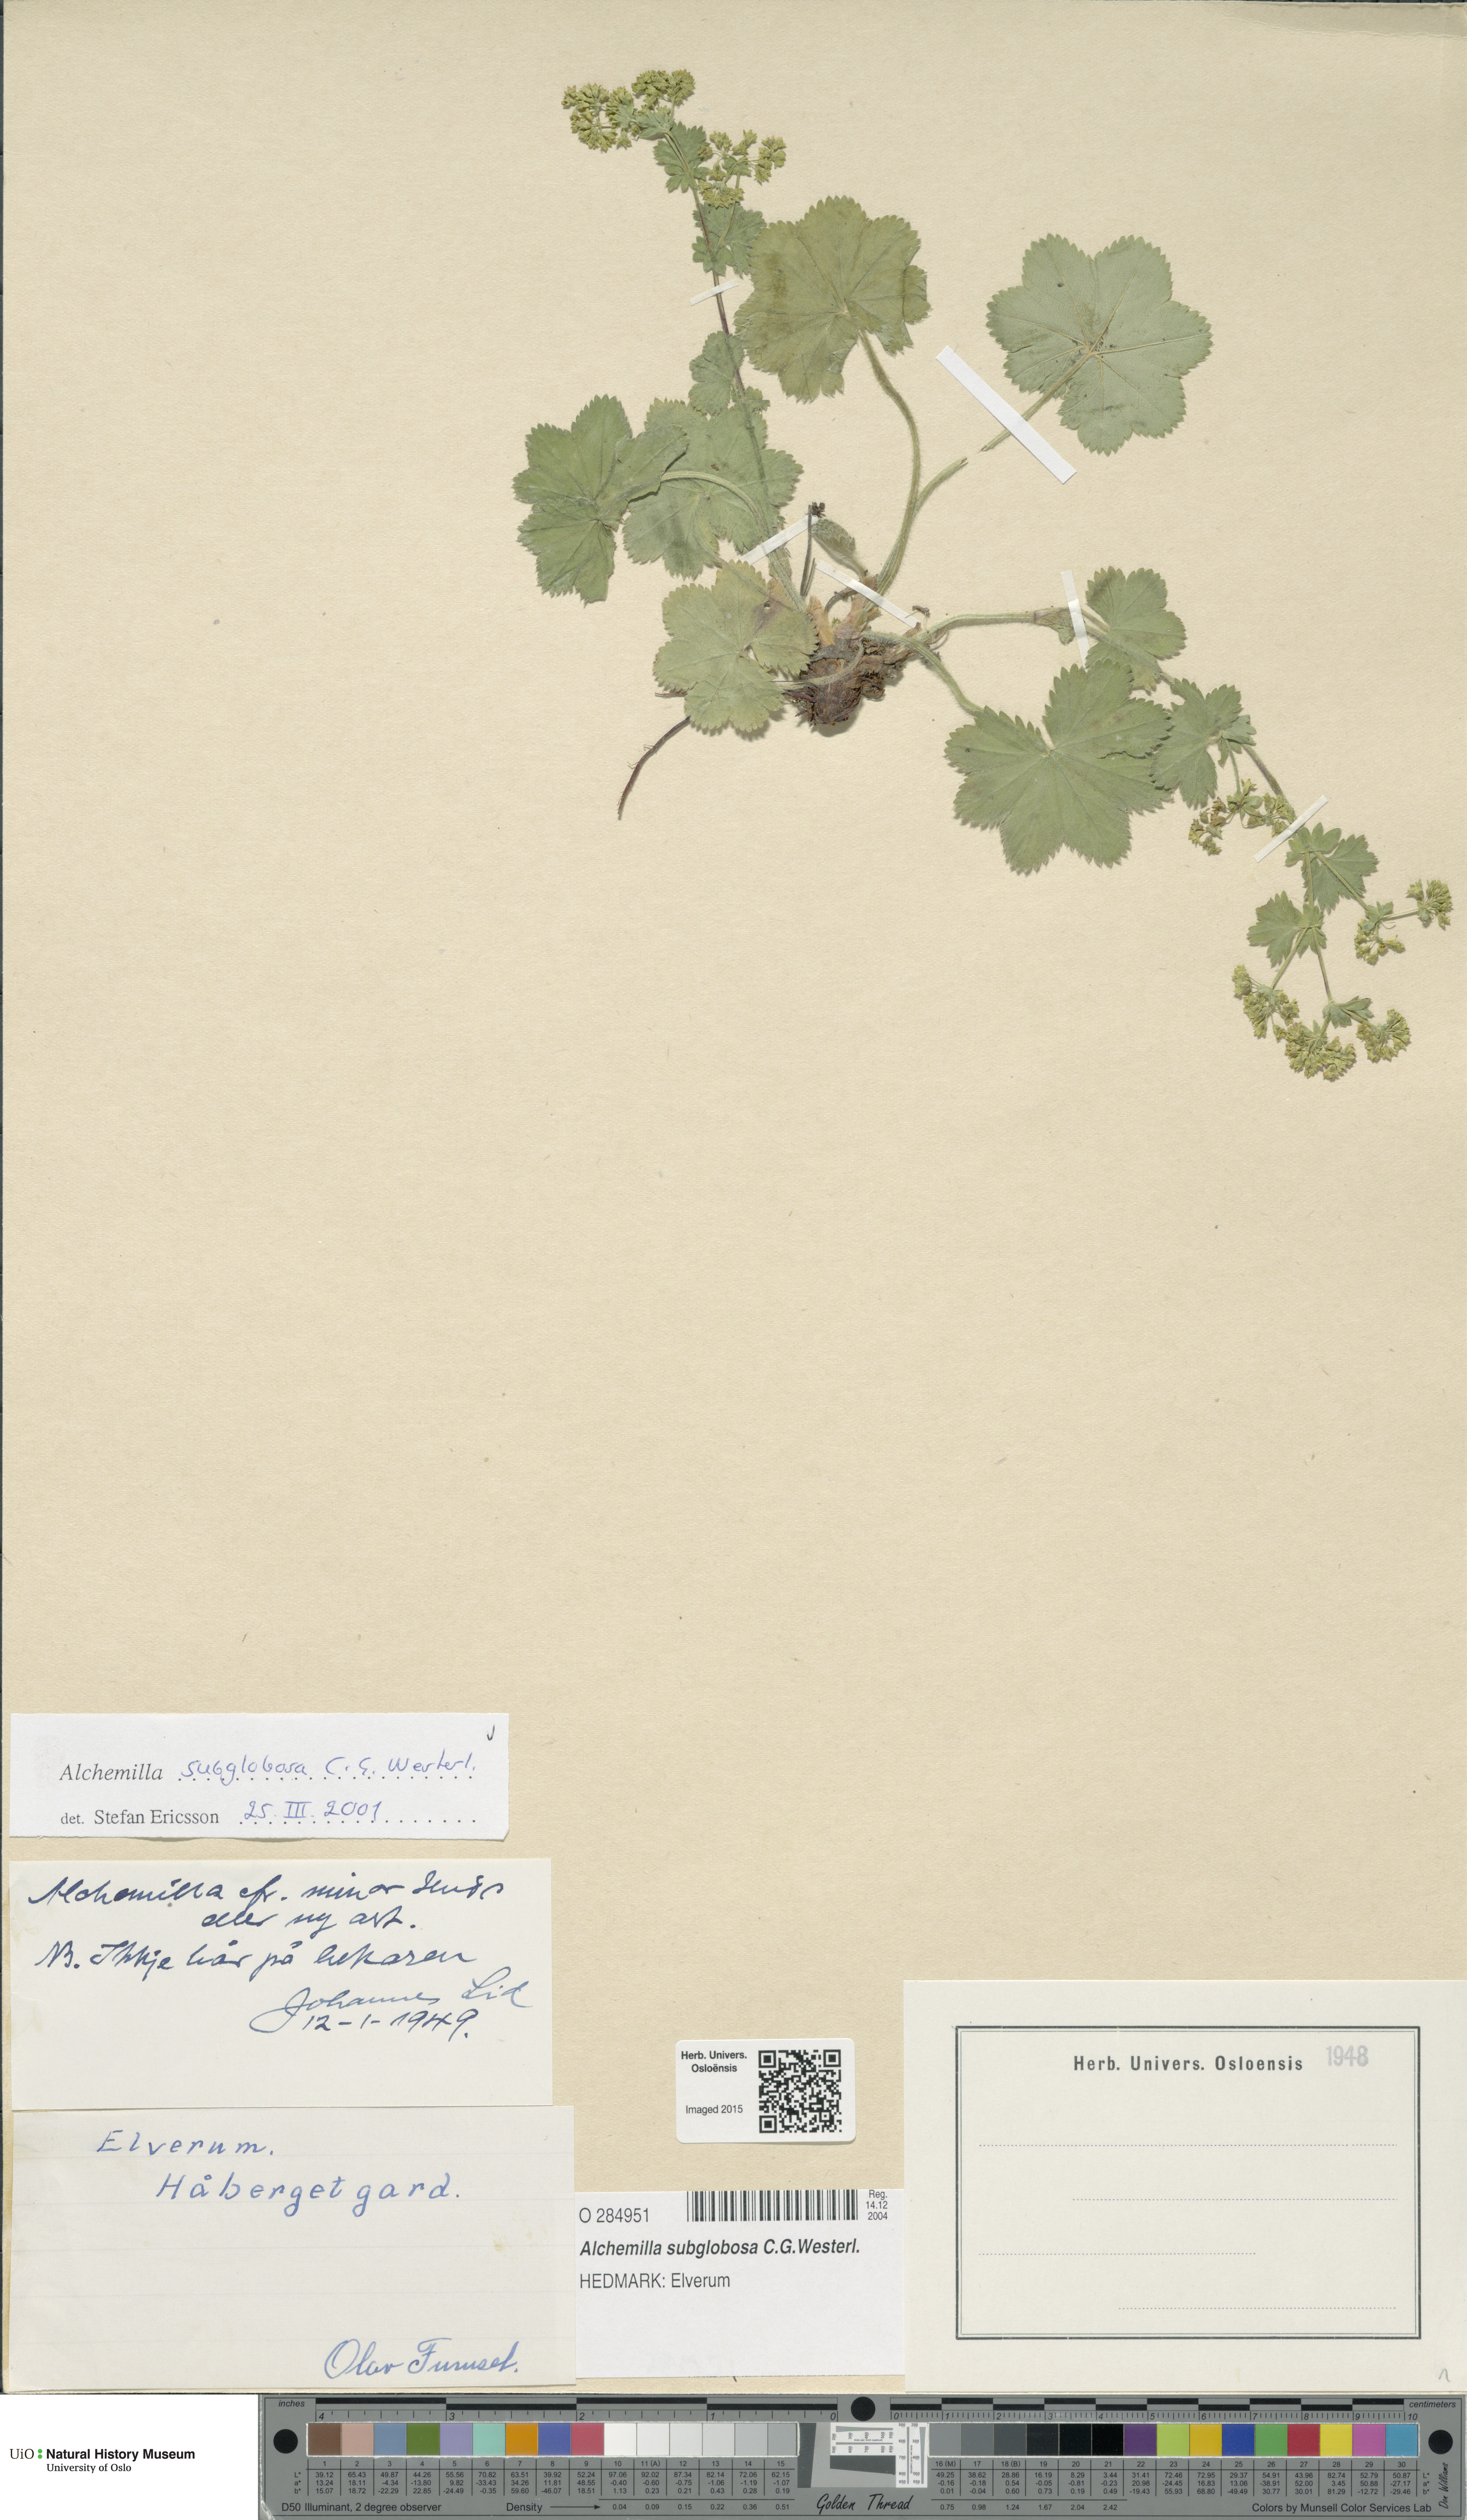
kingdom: Plantae
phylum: Tracheophyta
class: Magnoliopsida
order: Rosales
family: Rosaceae
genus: Alchemilla
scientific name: Alchemilla subglobosa
